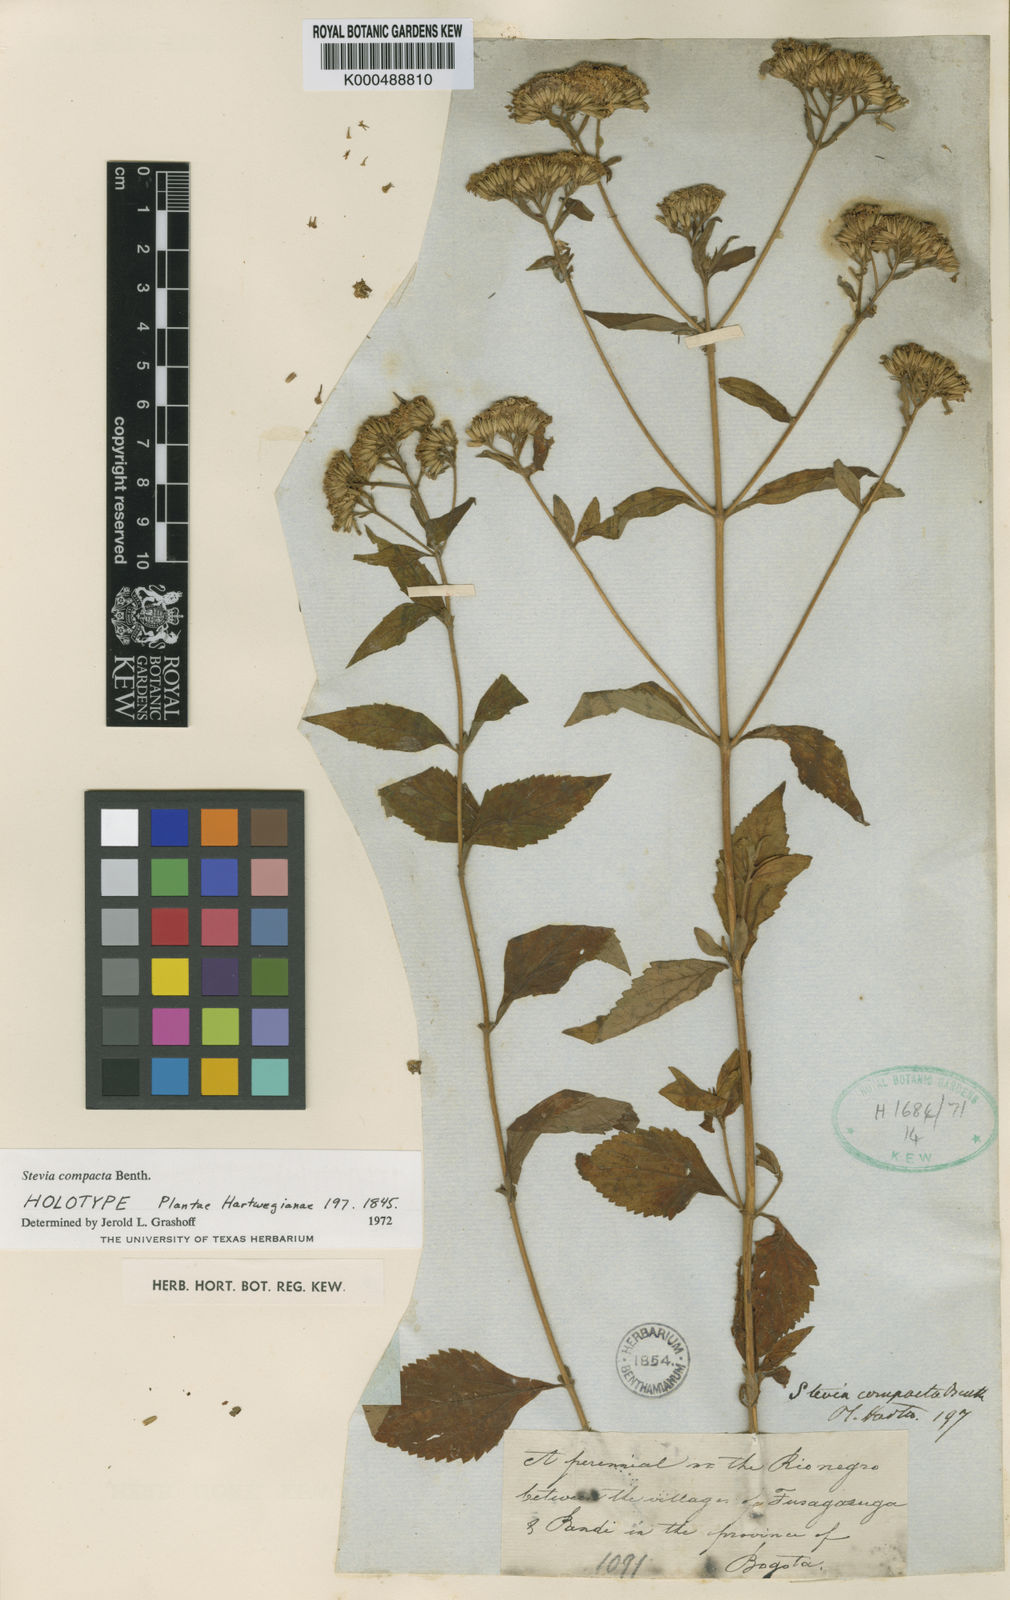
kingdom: Plantae
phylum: Tracheophyta
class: Magnoliopsida
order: Asterales
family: Asteraceae
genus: Stevia
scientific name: Stevia triflora
